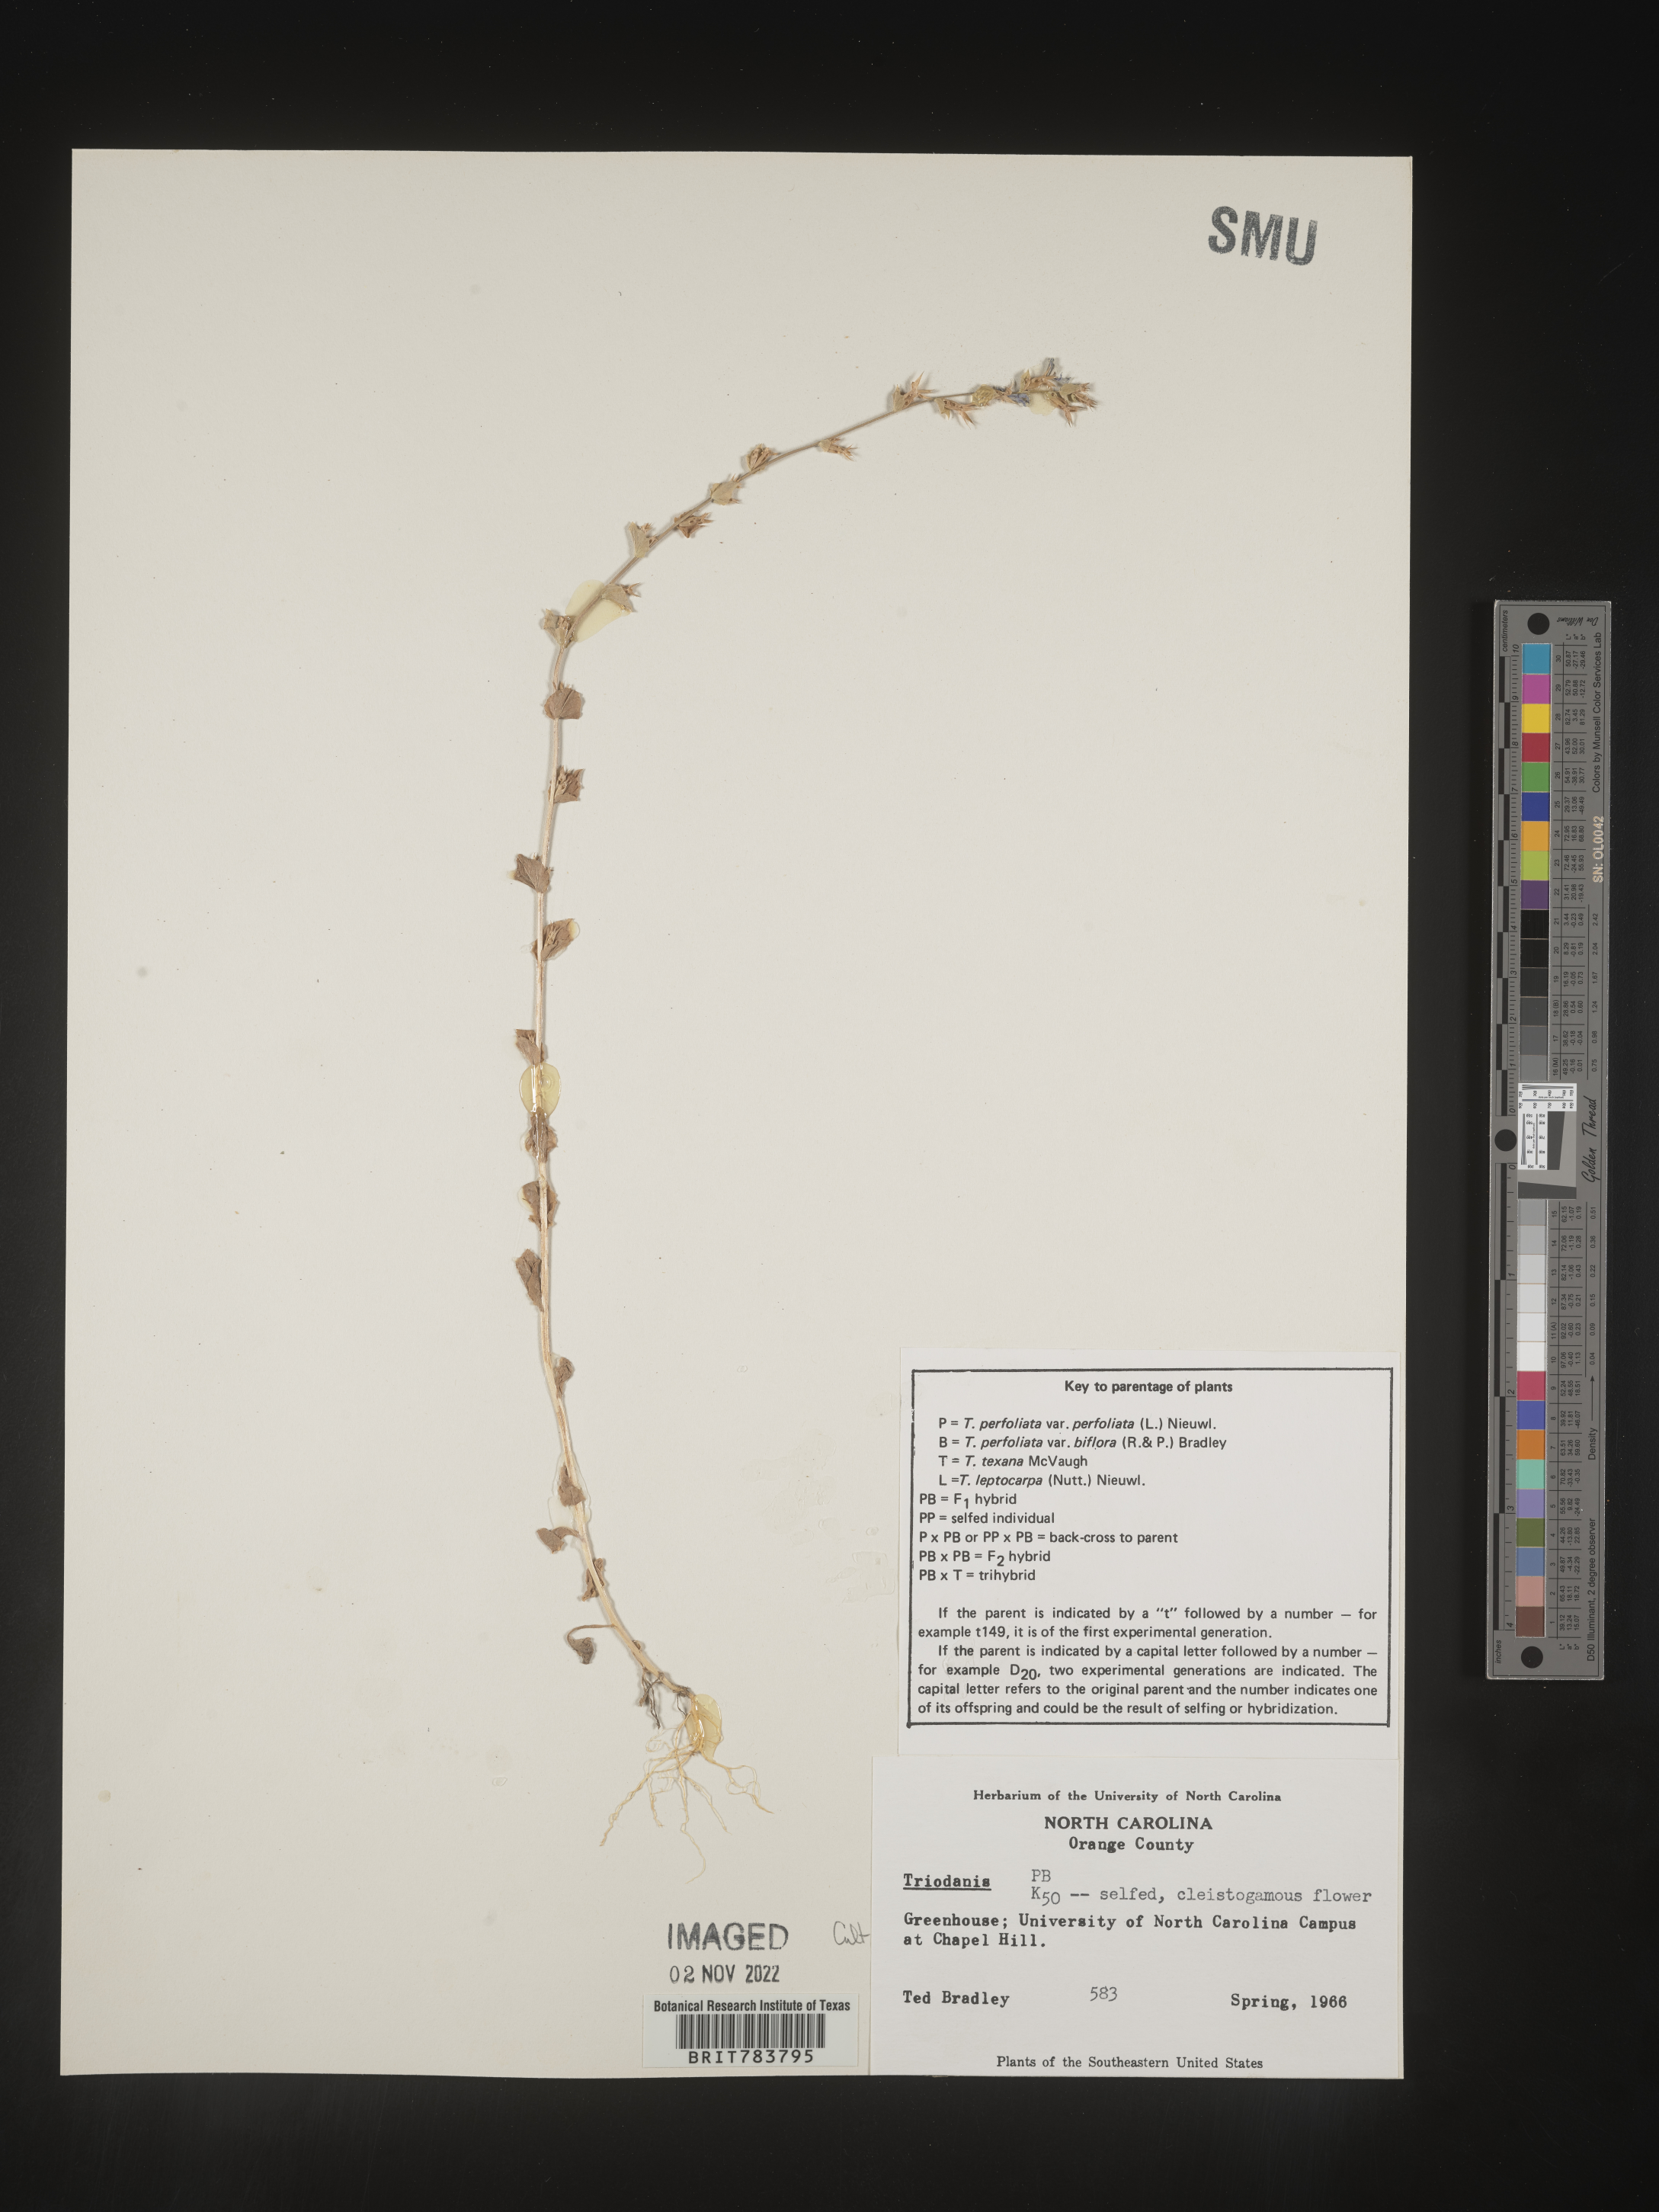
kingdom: Plantae
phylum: Tracheophyta
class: Magnoliopsida
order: Asterales
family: Campanulaceae
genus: Triodanis
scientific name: Triodanis
